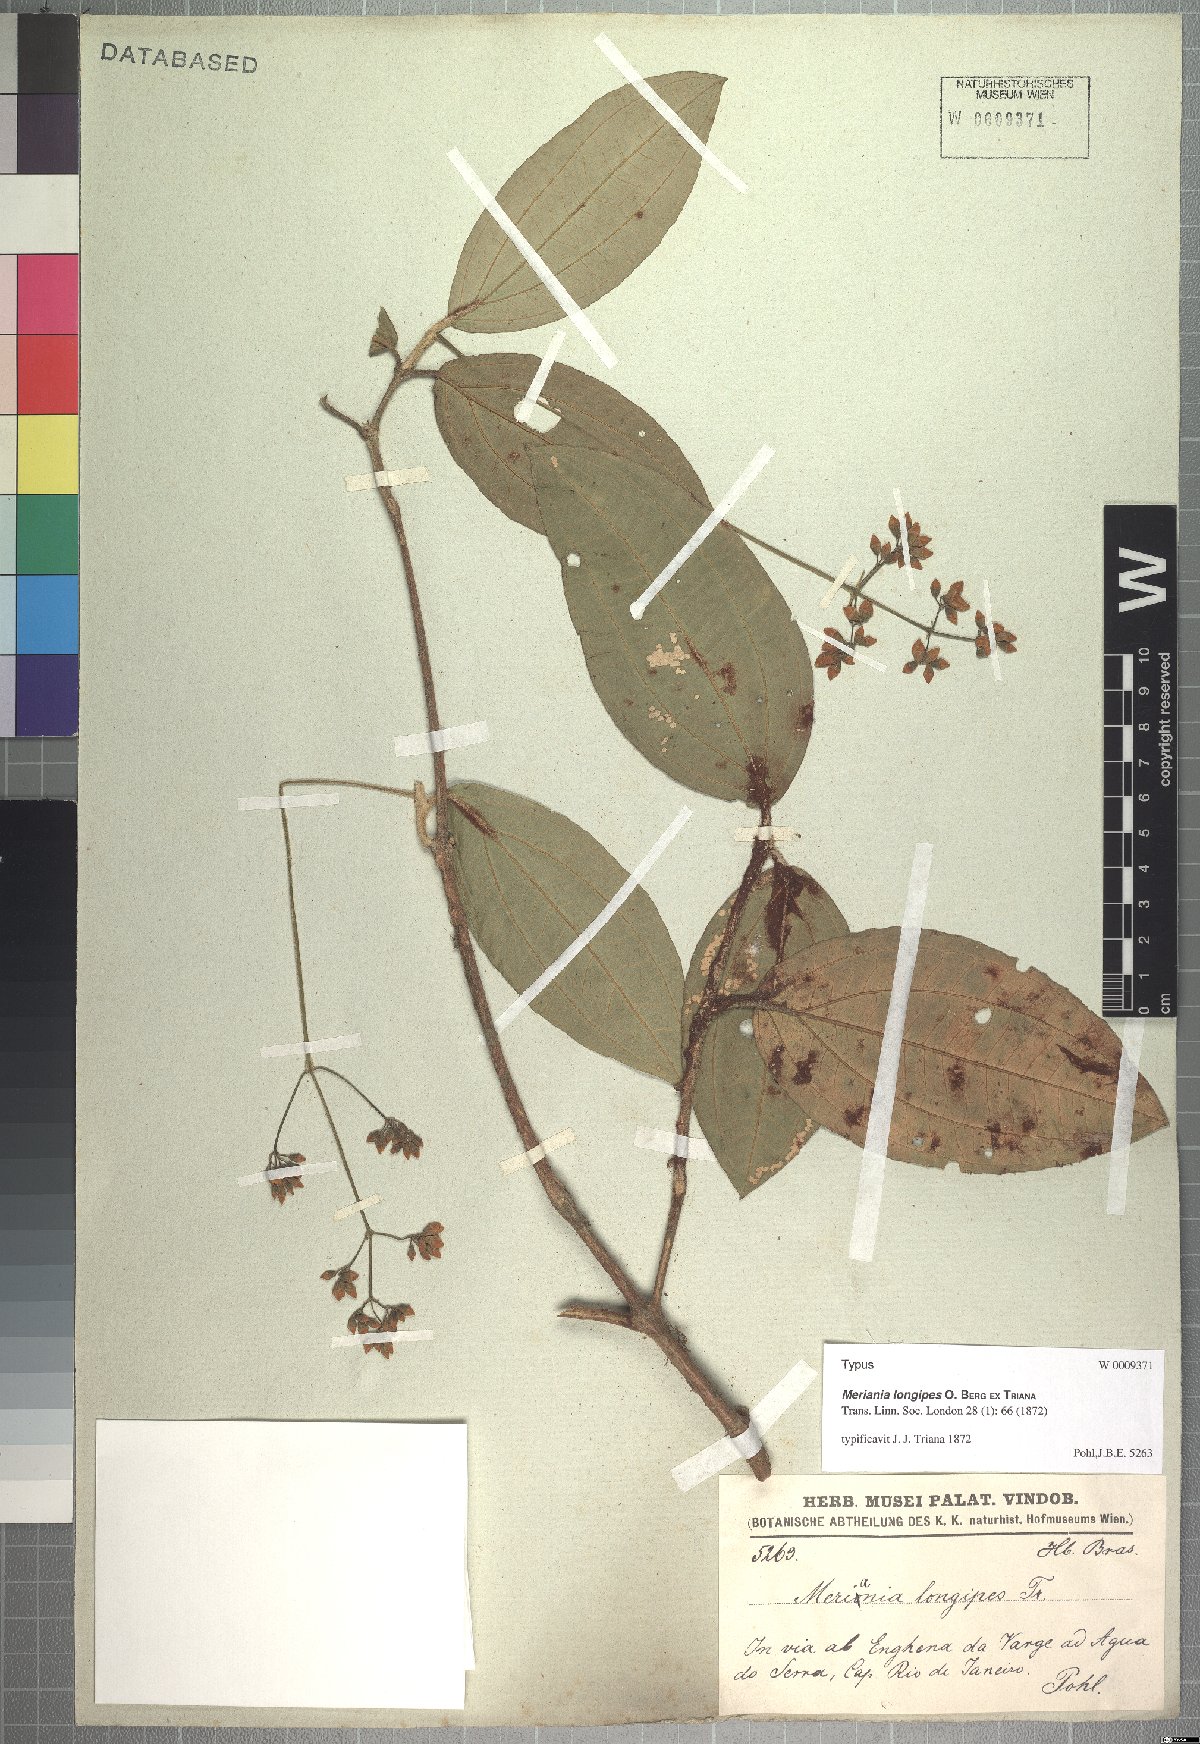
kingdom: Plantae
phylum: Tracheophyta
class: Magnoliopsida
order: Myrtales
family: Melastomataceae
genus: Meriania
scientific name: Meriania longipes
